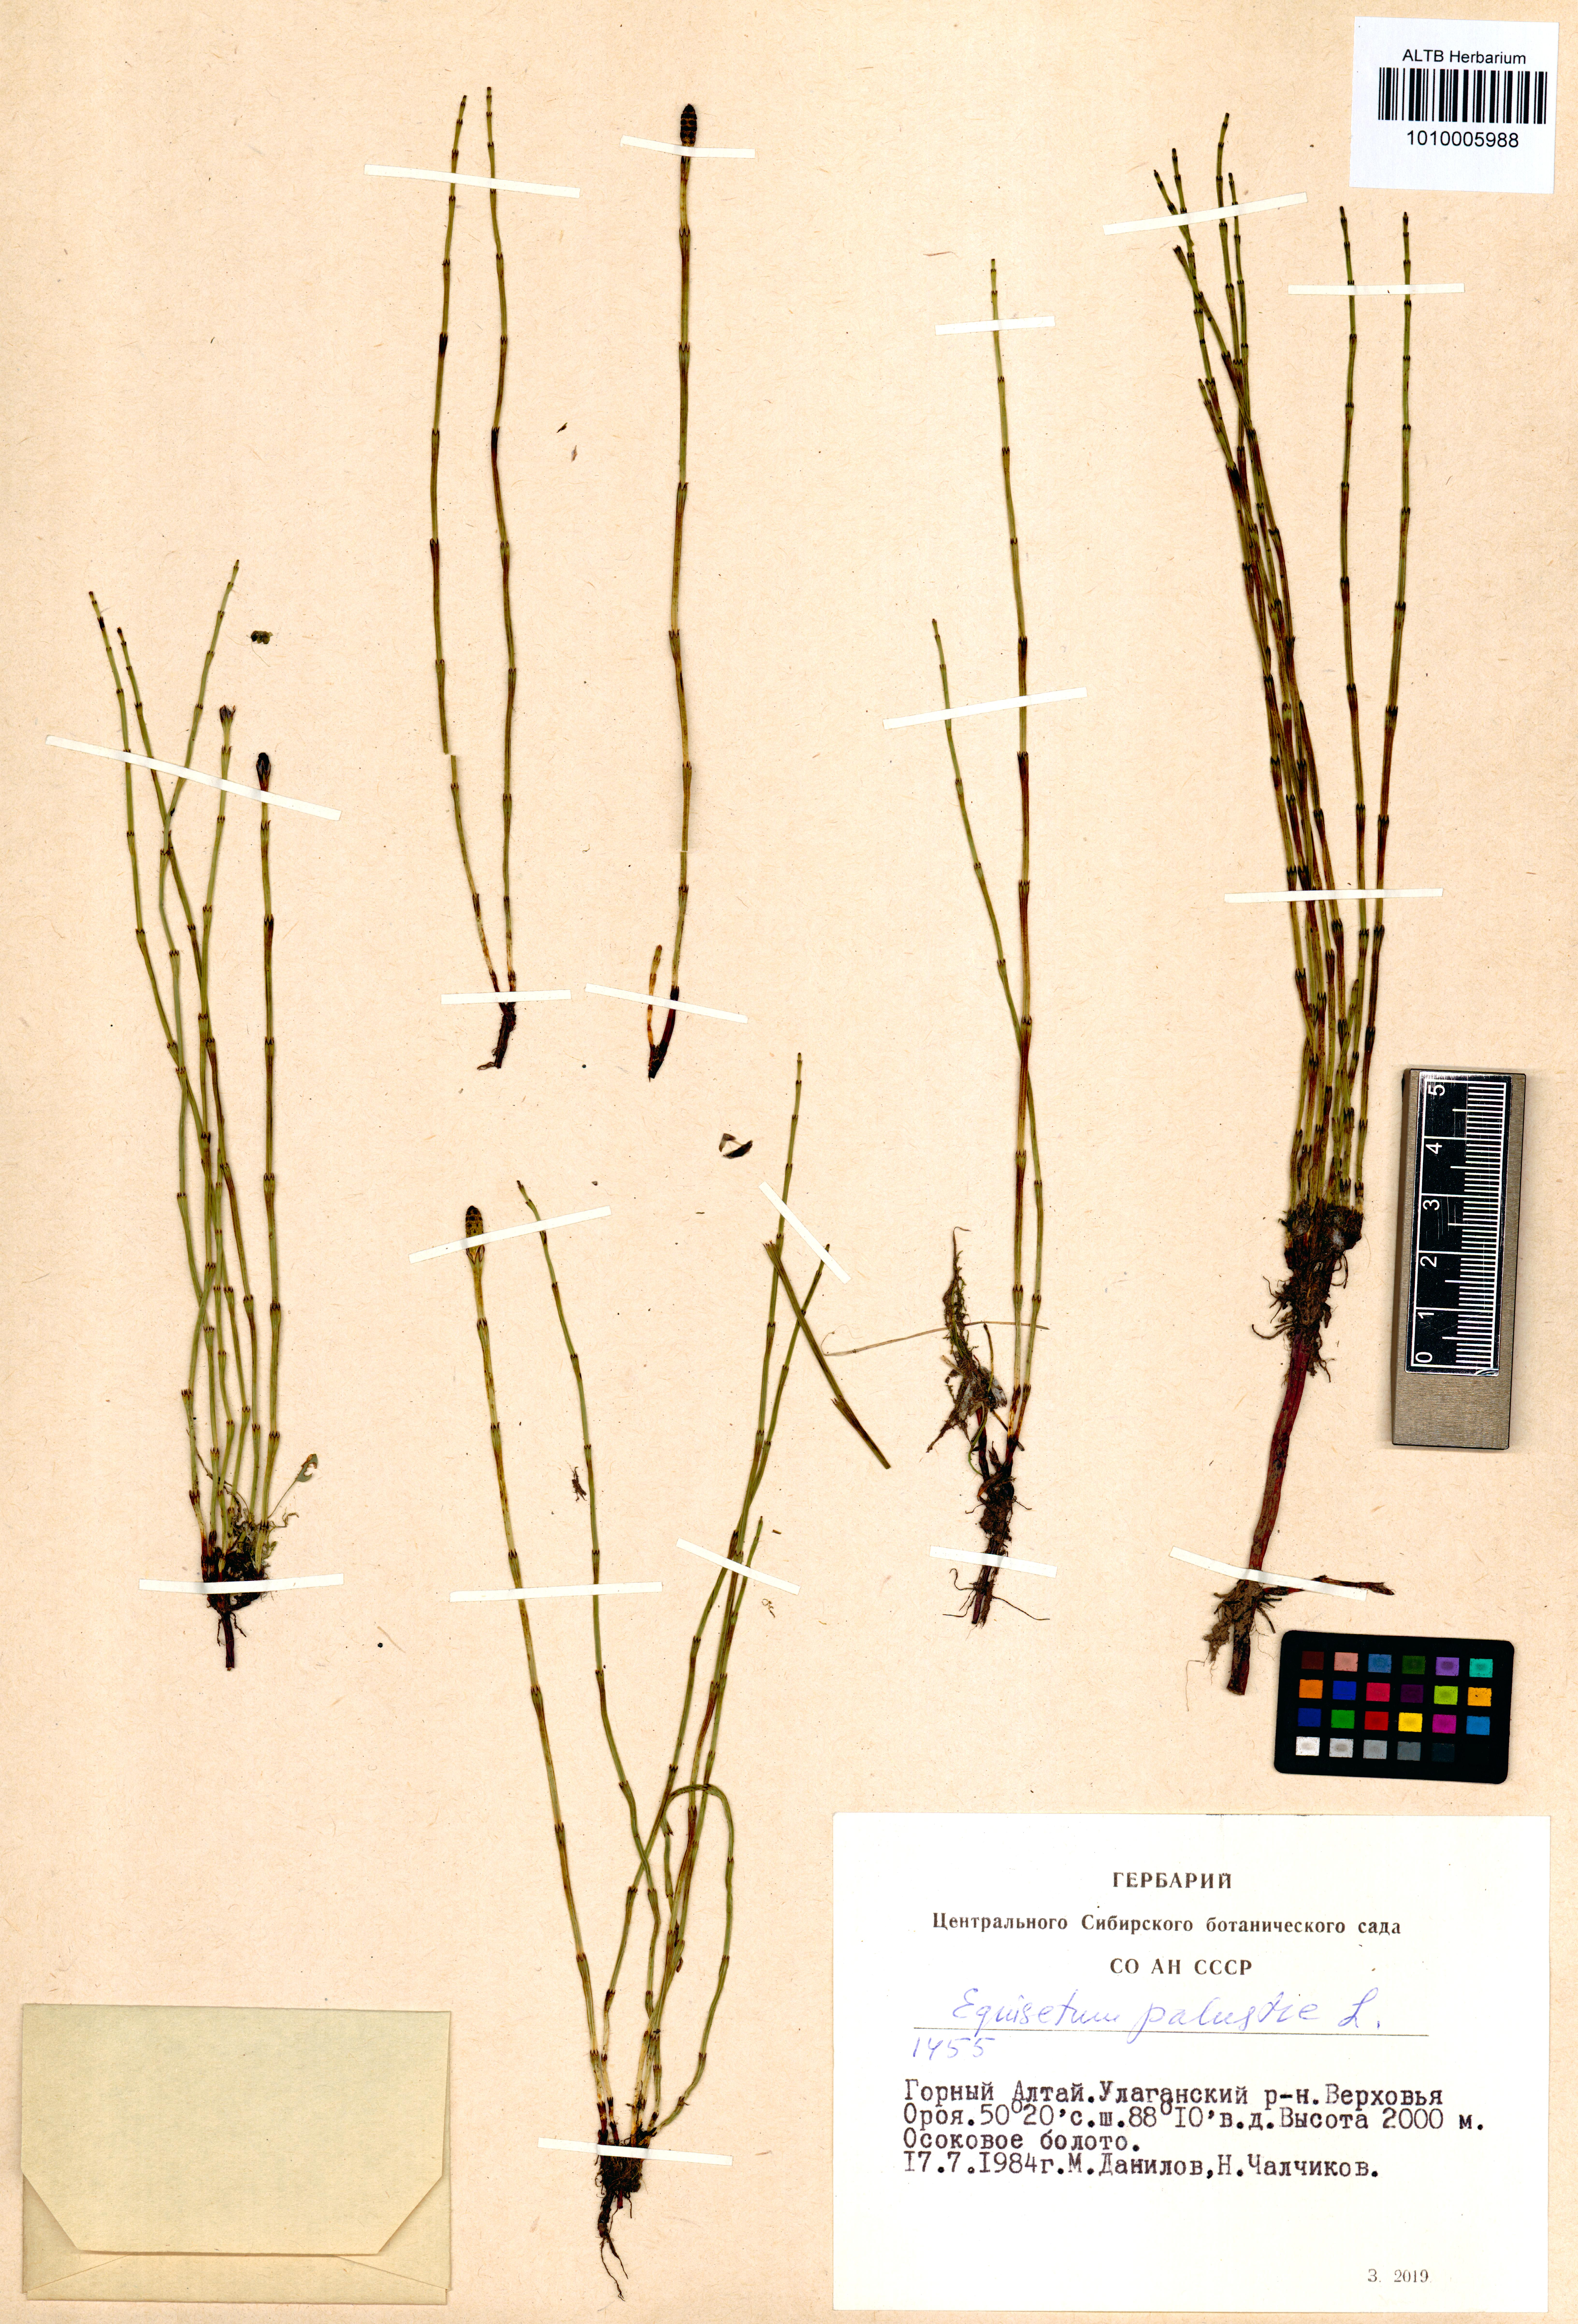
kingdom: Plantae
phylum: Tracheophyta
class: Polypodiopsida
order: Equisetales
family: Equisetaceae
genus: Equisetum
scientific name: Equisetum palustre
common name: Marsh horsetail
